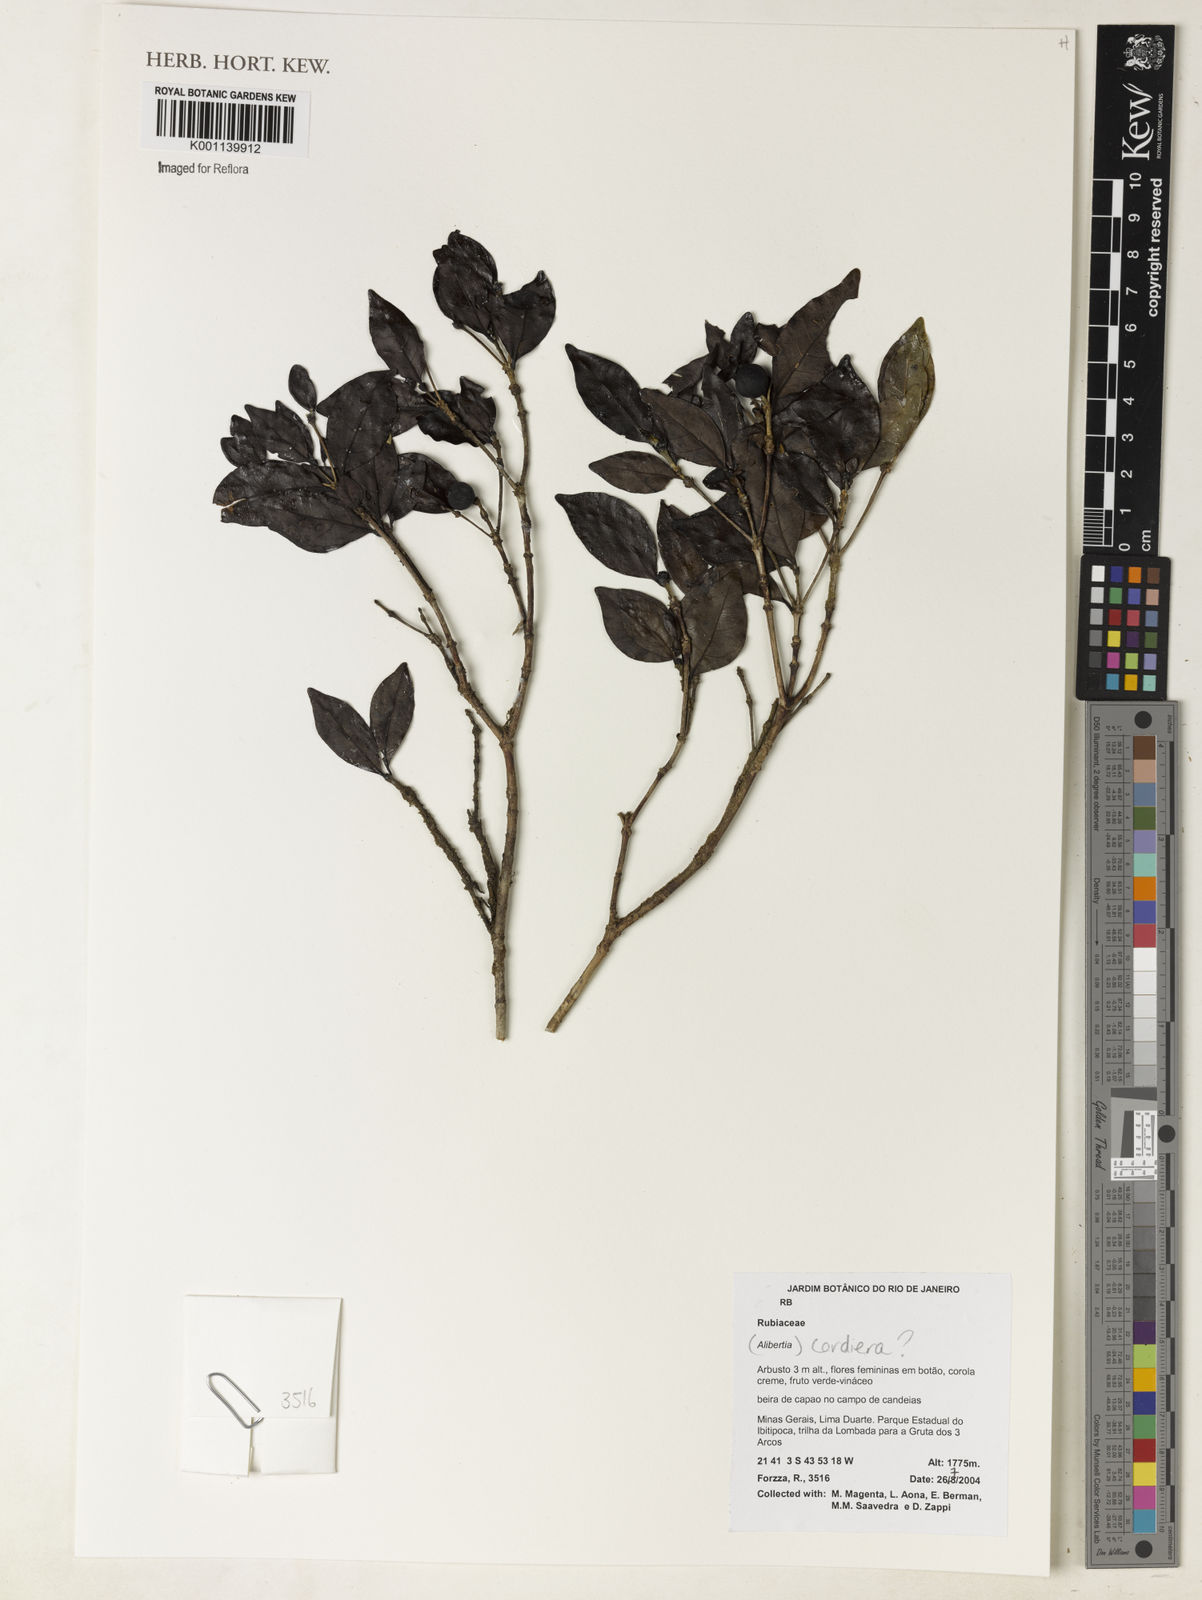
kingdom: Plantae
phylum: Tracheophyta
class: Magnoliopsida
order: Gentianales
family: Rubiaceae
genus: Alibertia
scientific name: Alibertia
